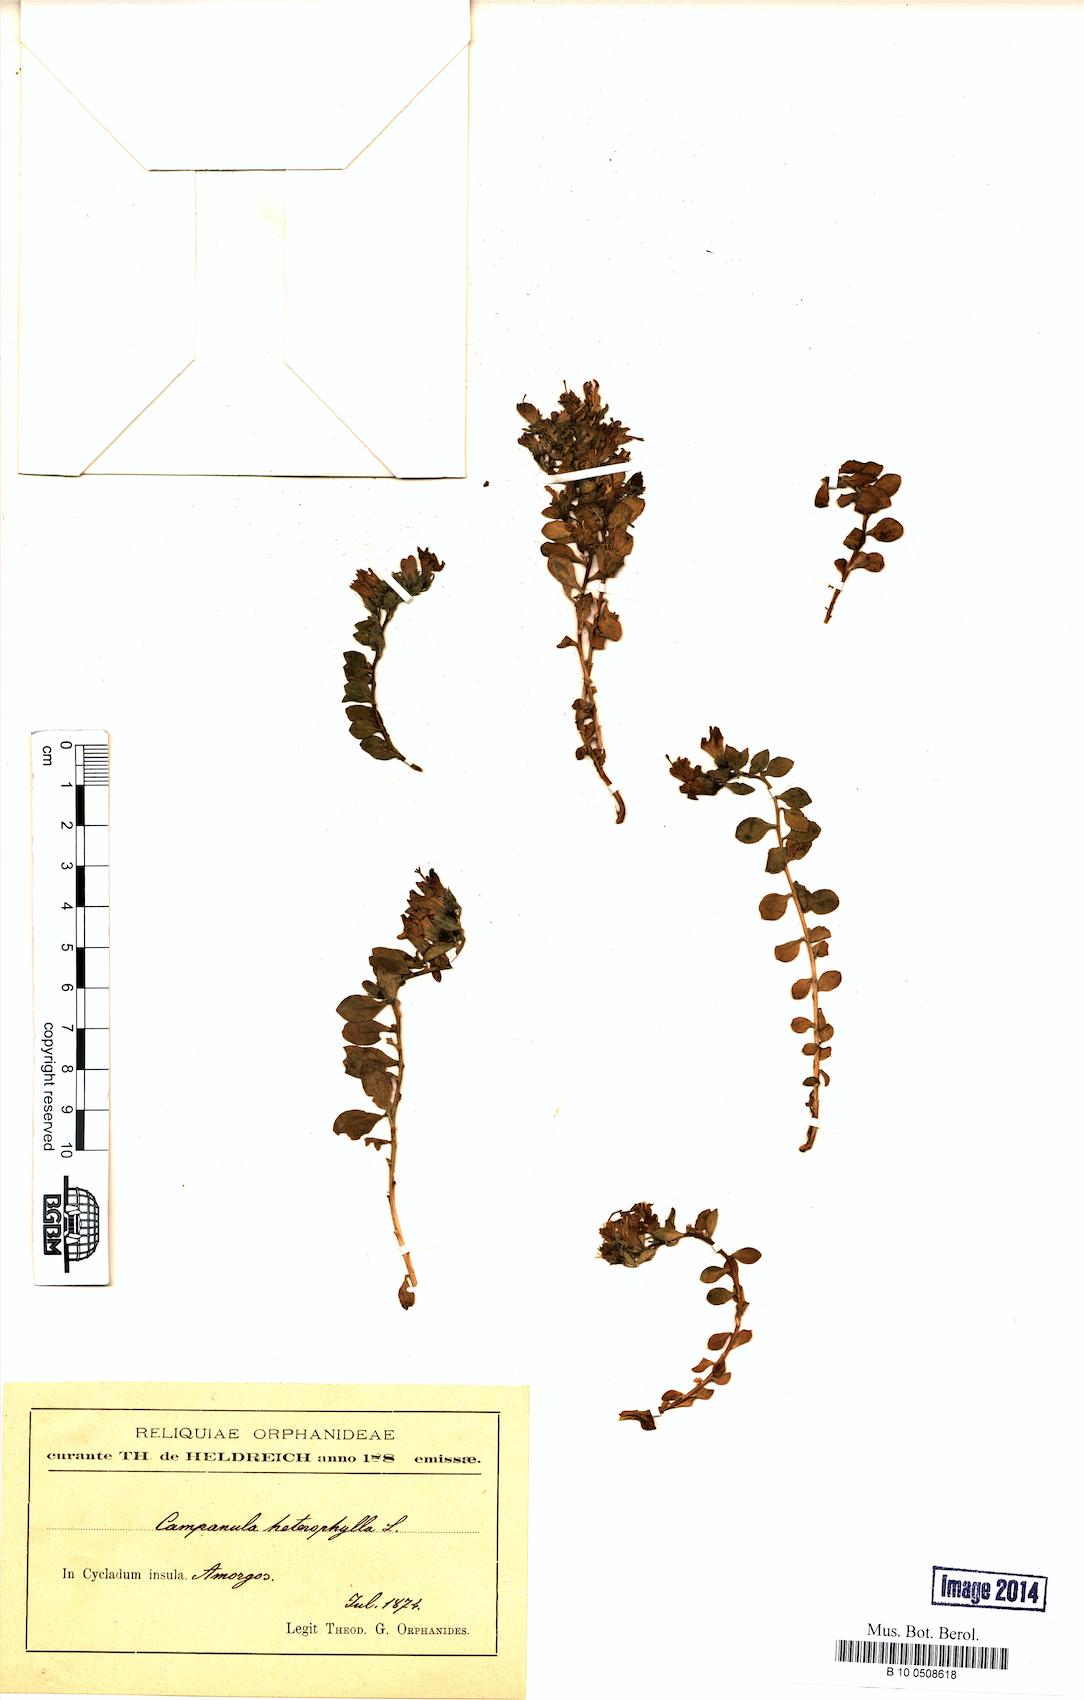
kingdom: Plantae
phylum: Tracheophyta
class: Magnoliopsida
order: Asterales
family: Campanulaceae
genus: Campanula
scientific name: Campanula heterophylla
